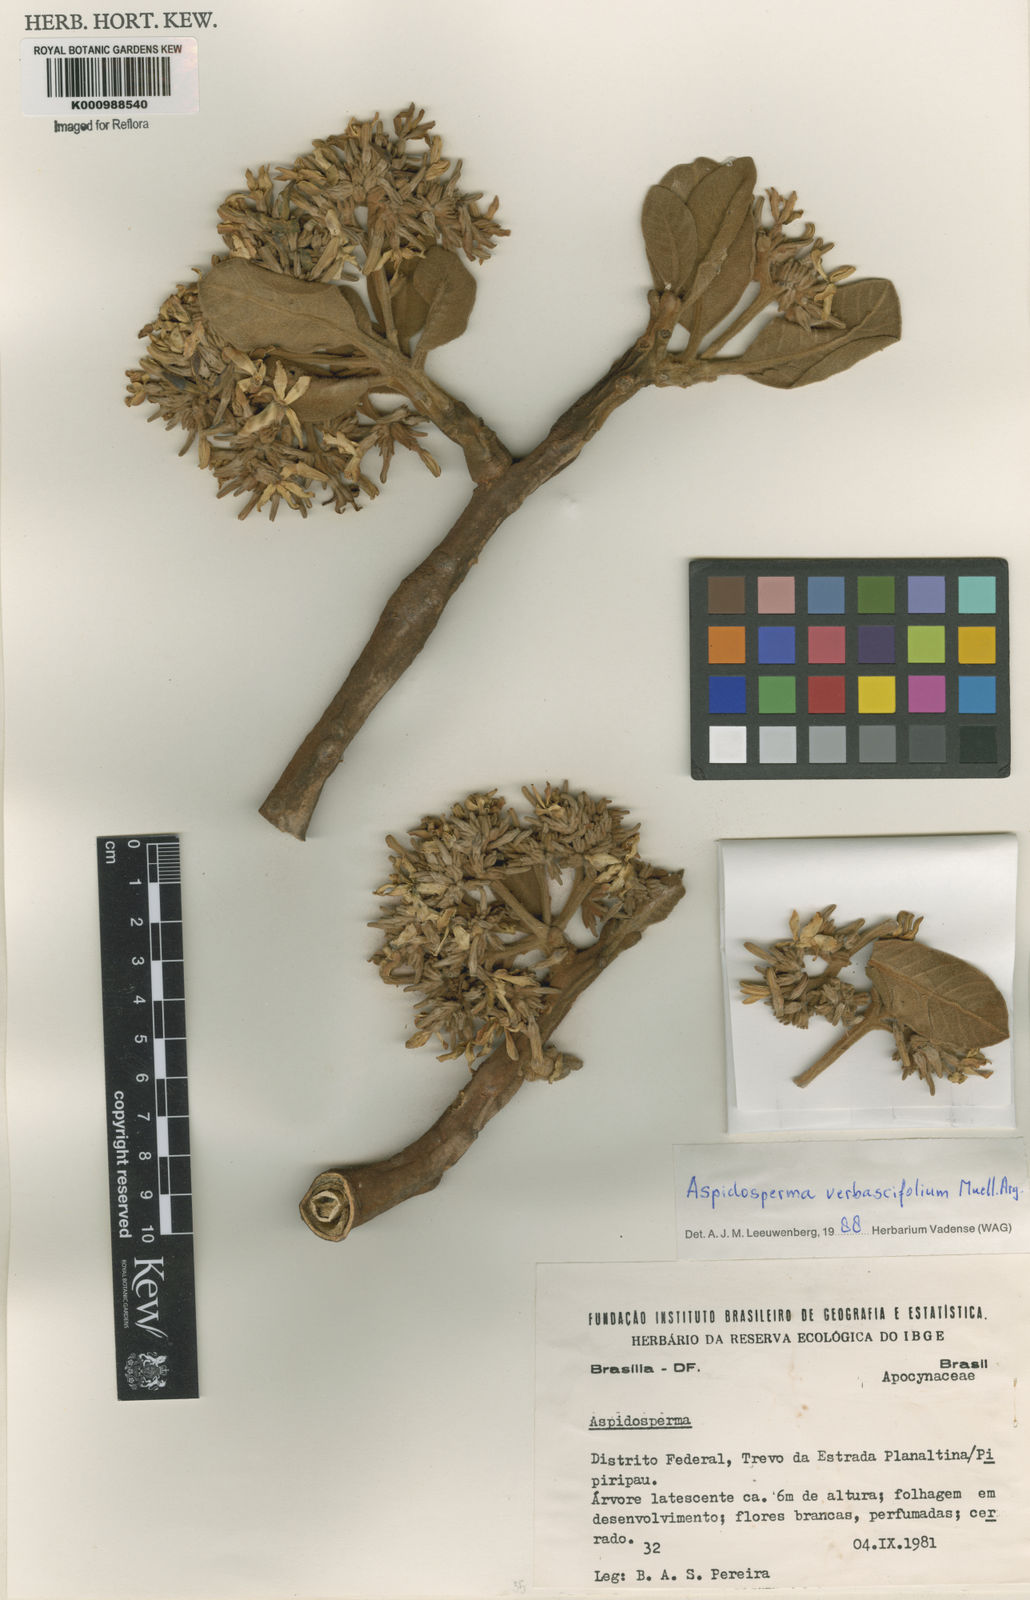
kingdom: Plantae
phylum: Tracheophyta
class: Magnoliopsida
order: Gentianales
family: Apocynaceae
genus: Aspidosperma
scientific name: Aspidosperma
